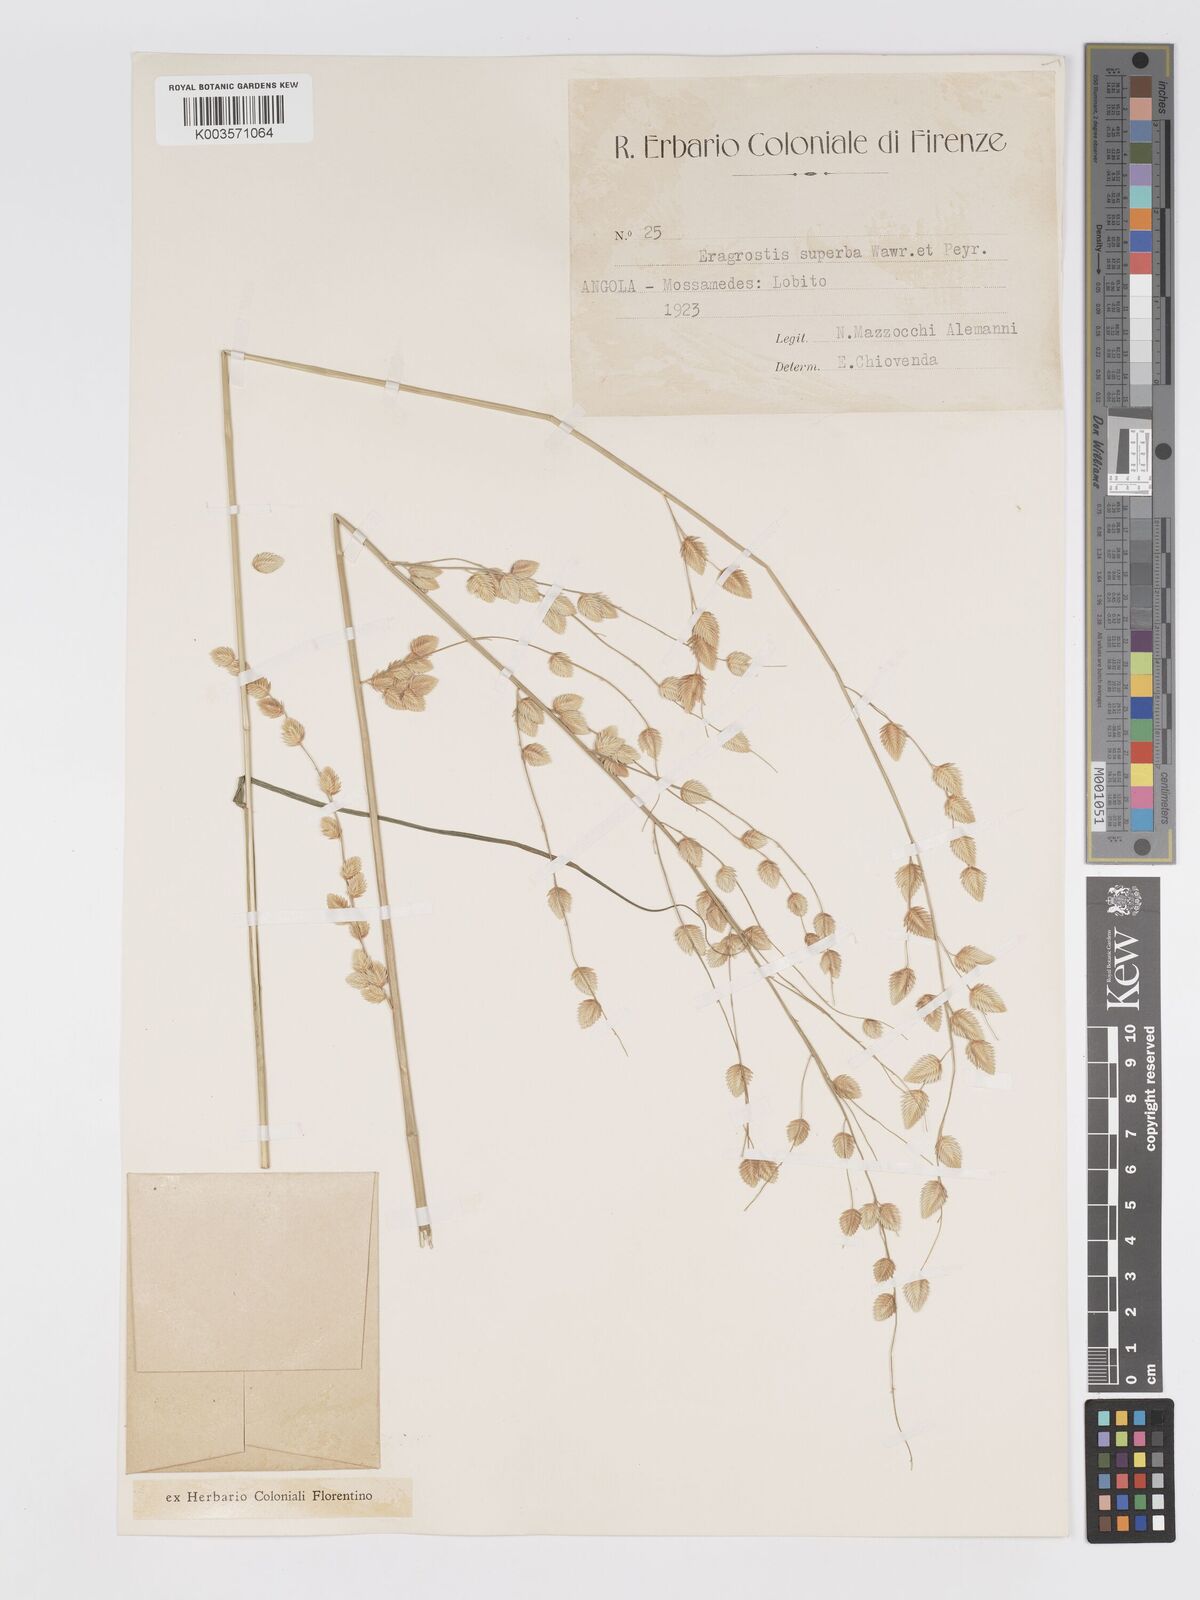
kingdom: Plantae
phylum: Tracheophyta
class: Liliopsida
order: Poales
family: Poaceae
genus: Eragrostis
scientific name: Eragrostis superba
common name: Wilman lovegrass
